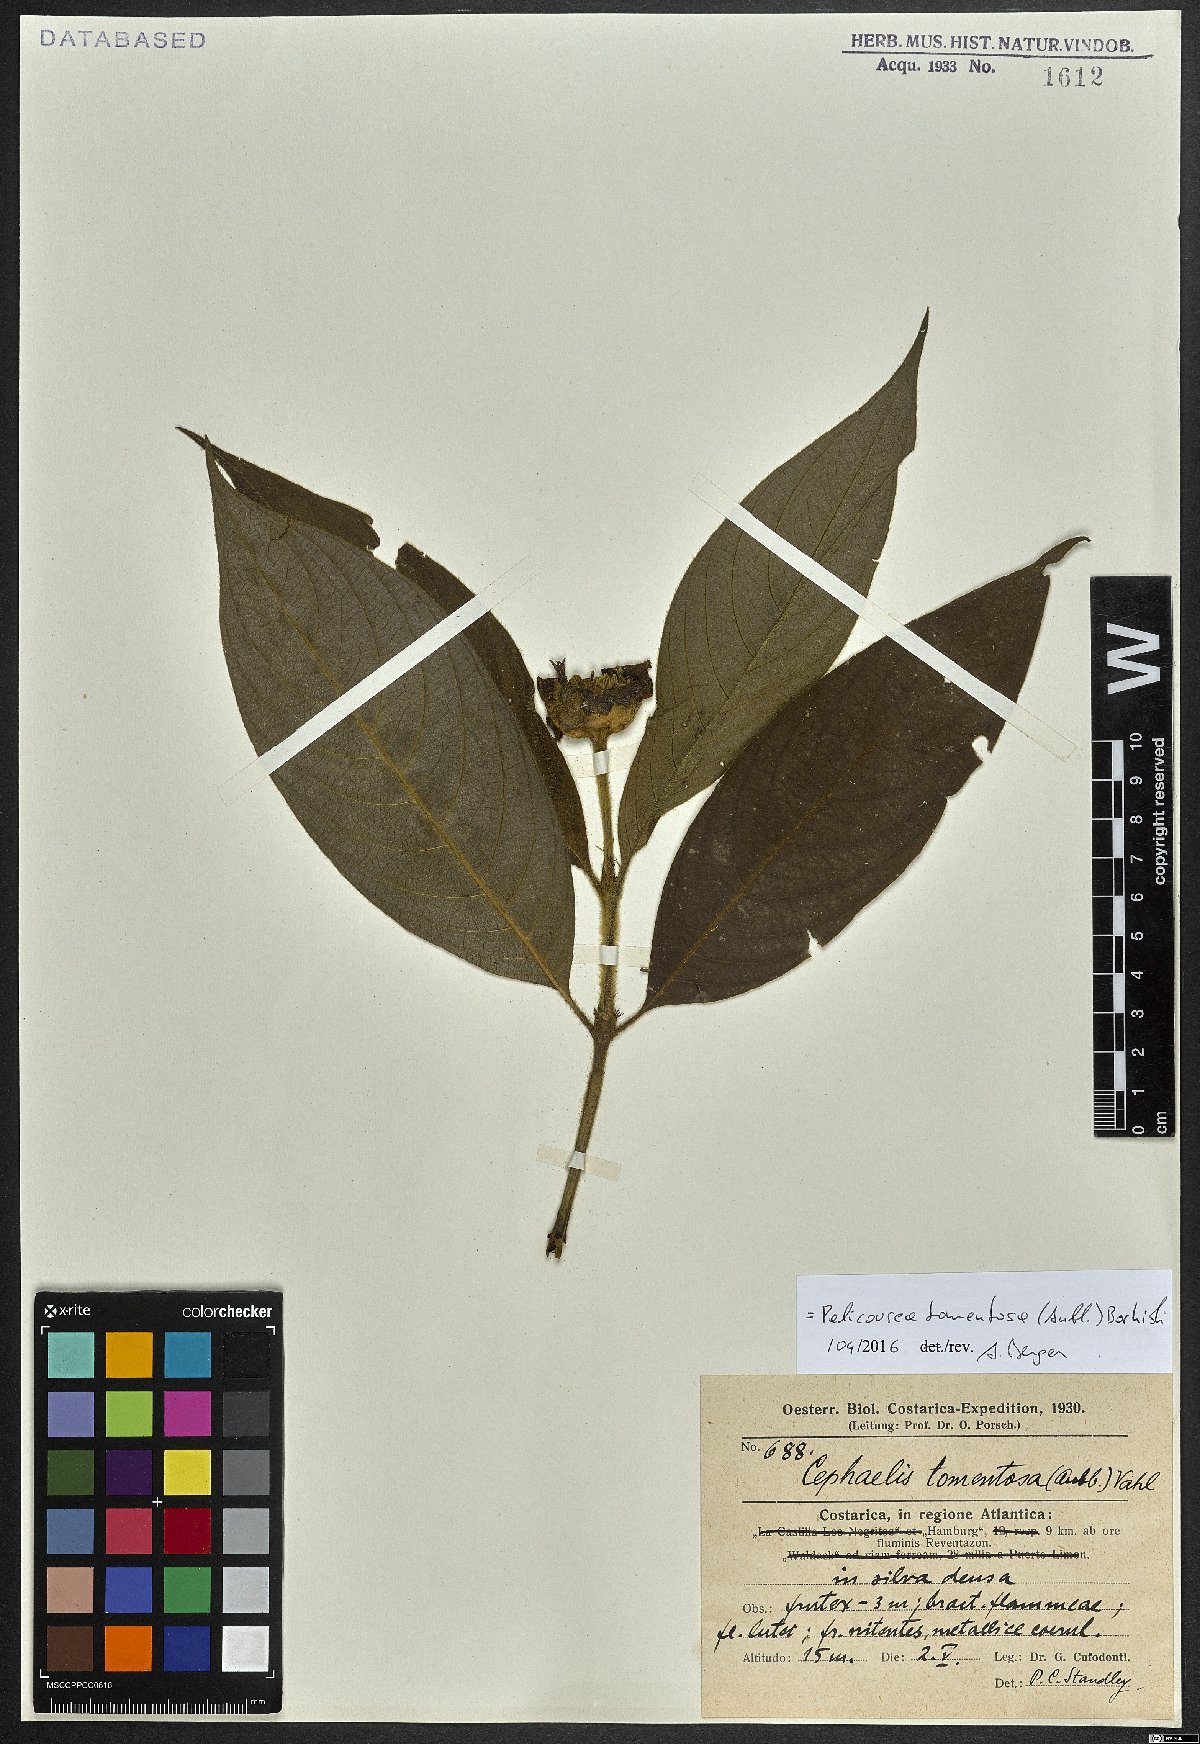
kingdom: Plantae
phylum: Tracheophyta
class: Magnoliopsida
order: Gentianales
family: Rubiaceae
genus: Palicourea
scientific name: Palicourea tomentosa
